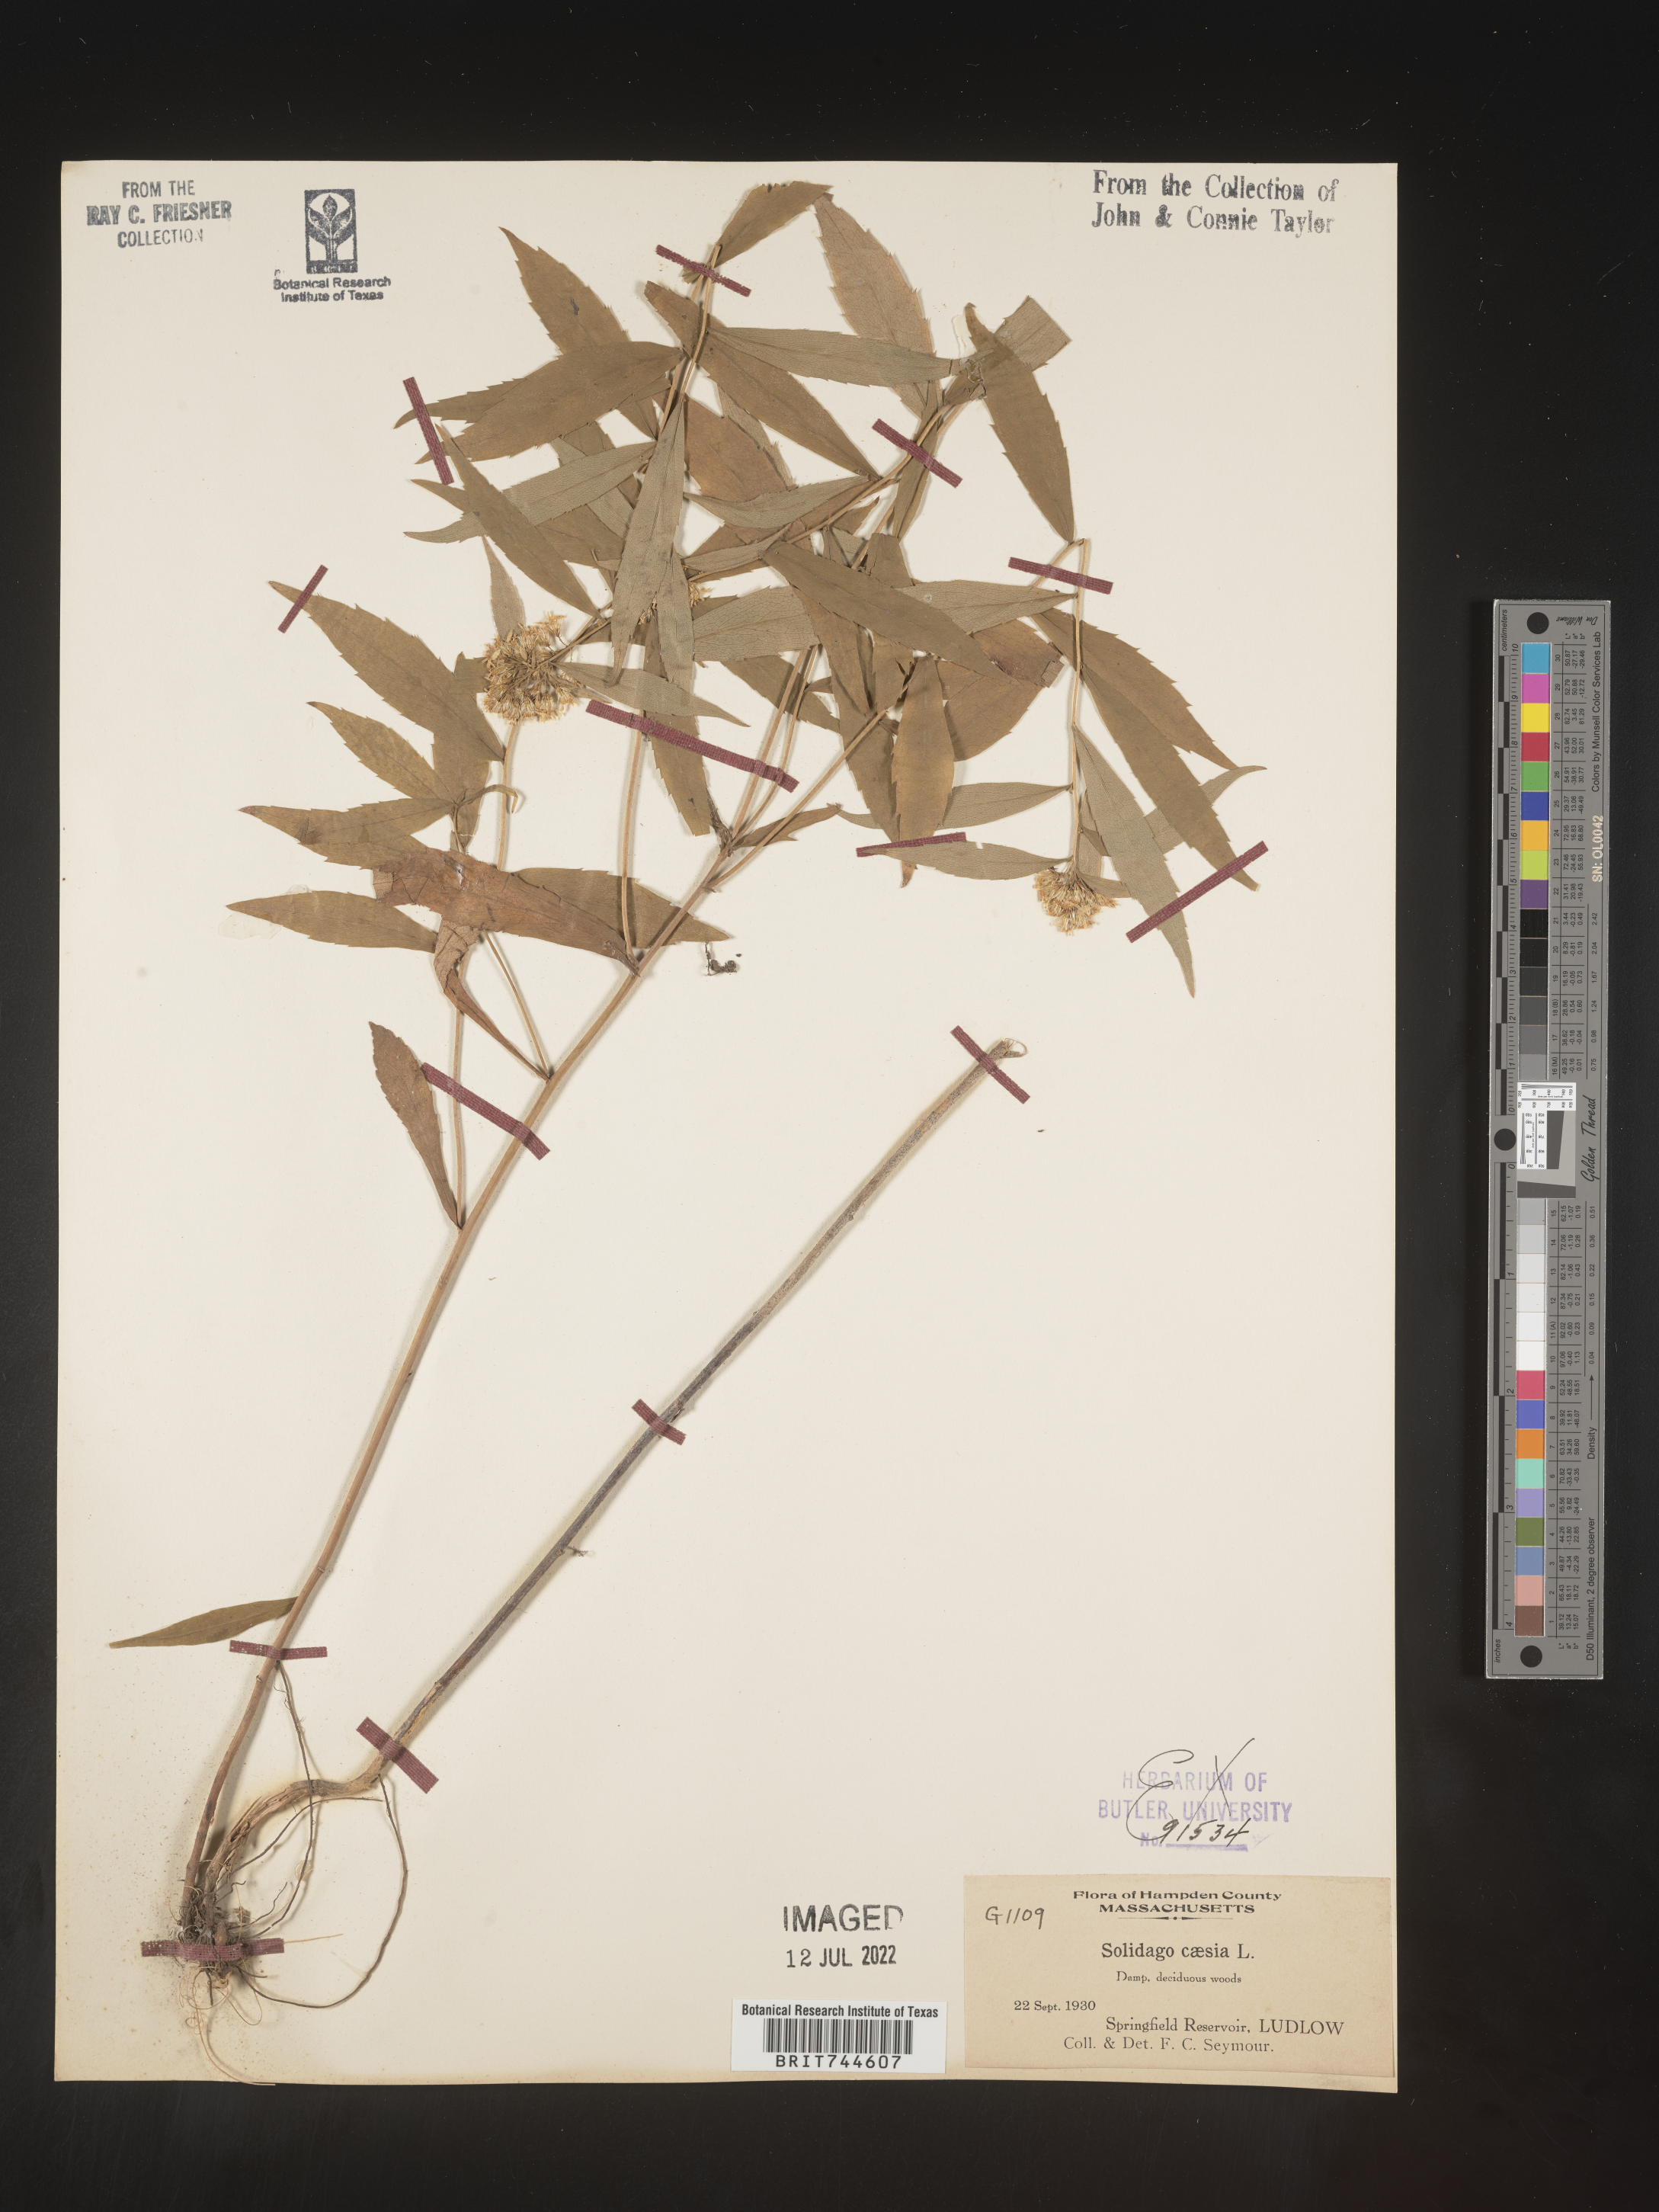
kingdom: Plantae
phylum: Tracheophyta
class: Magnoliopsida
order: Asterales
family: Asteraceae
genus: Solidago
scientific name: Solidago caesia
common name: Woodland goldenrod
